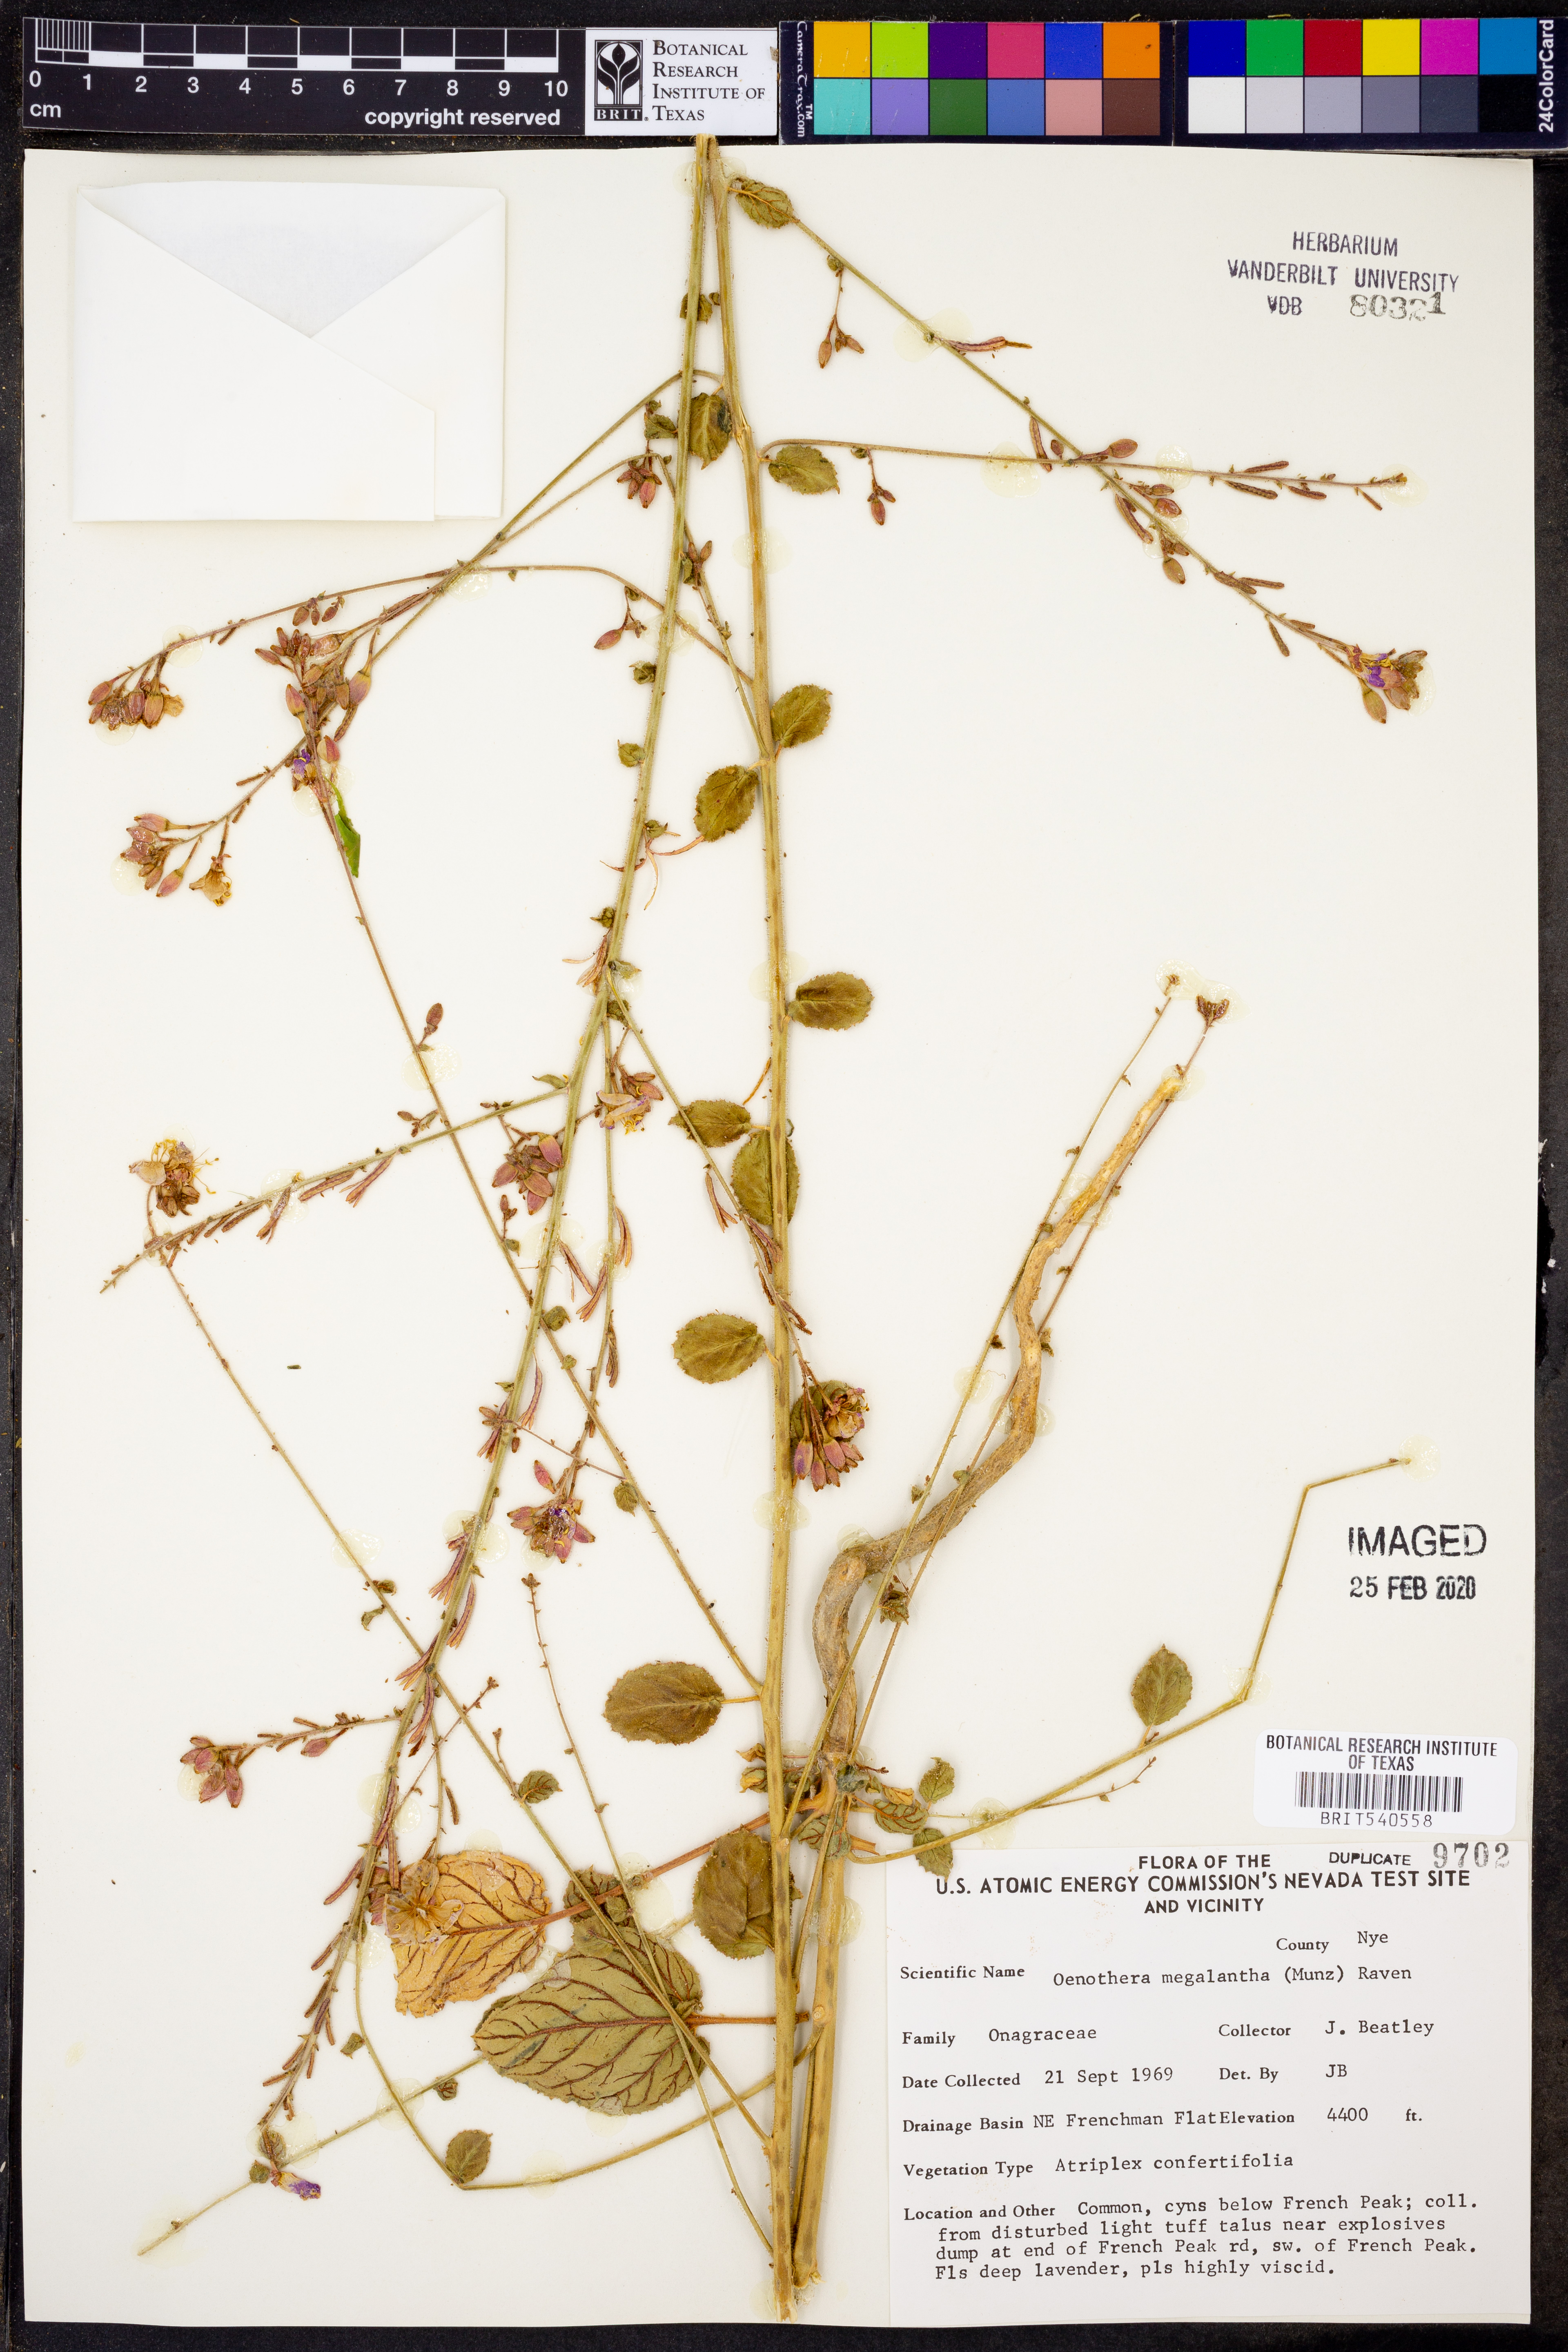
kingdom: Plantae
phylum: Tracheophyta
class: Magnoliopsida
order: Myrtales
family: Onagraceae
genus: Chylismia
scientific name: Chylismia megalantha
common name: Largeflower suncup
